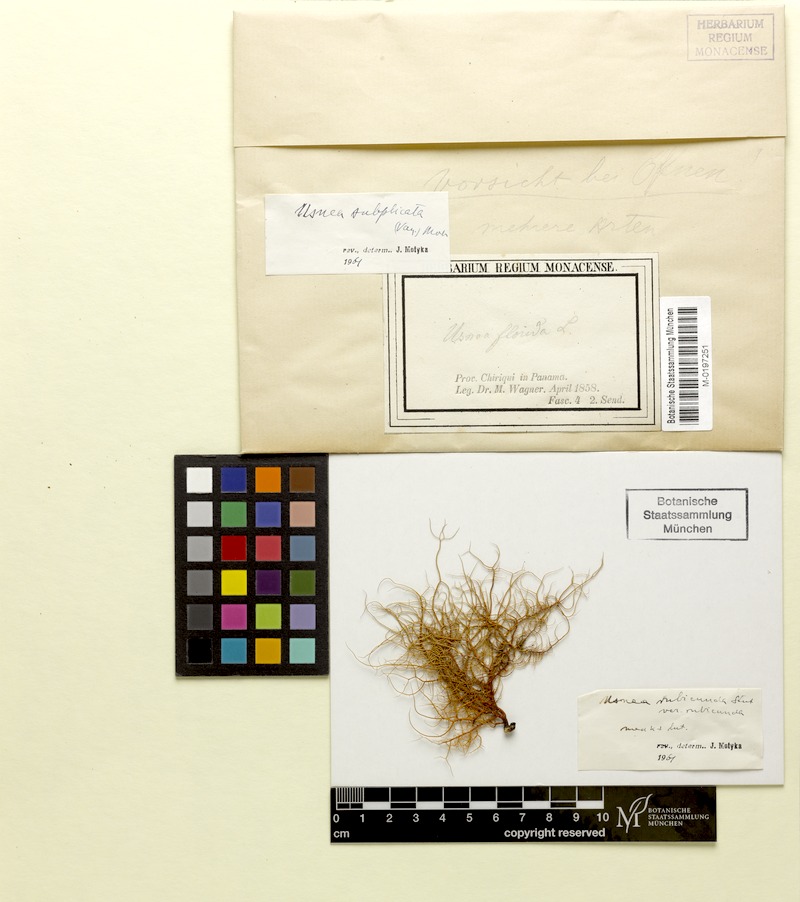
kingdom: Fungi
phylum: Ascomycota
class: Lecanoromycetes
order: Lecanorales
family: Parmeliaceae
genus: Usnea
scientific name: Usnea subgracilis
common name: Beard lichen
